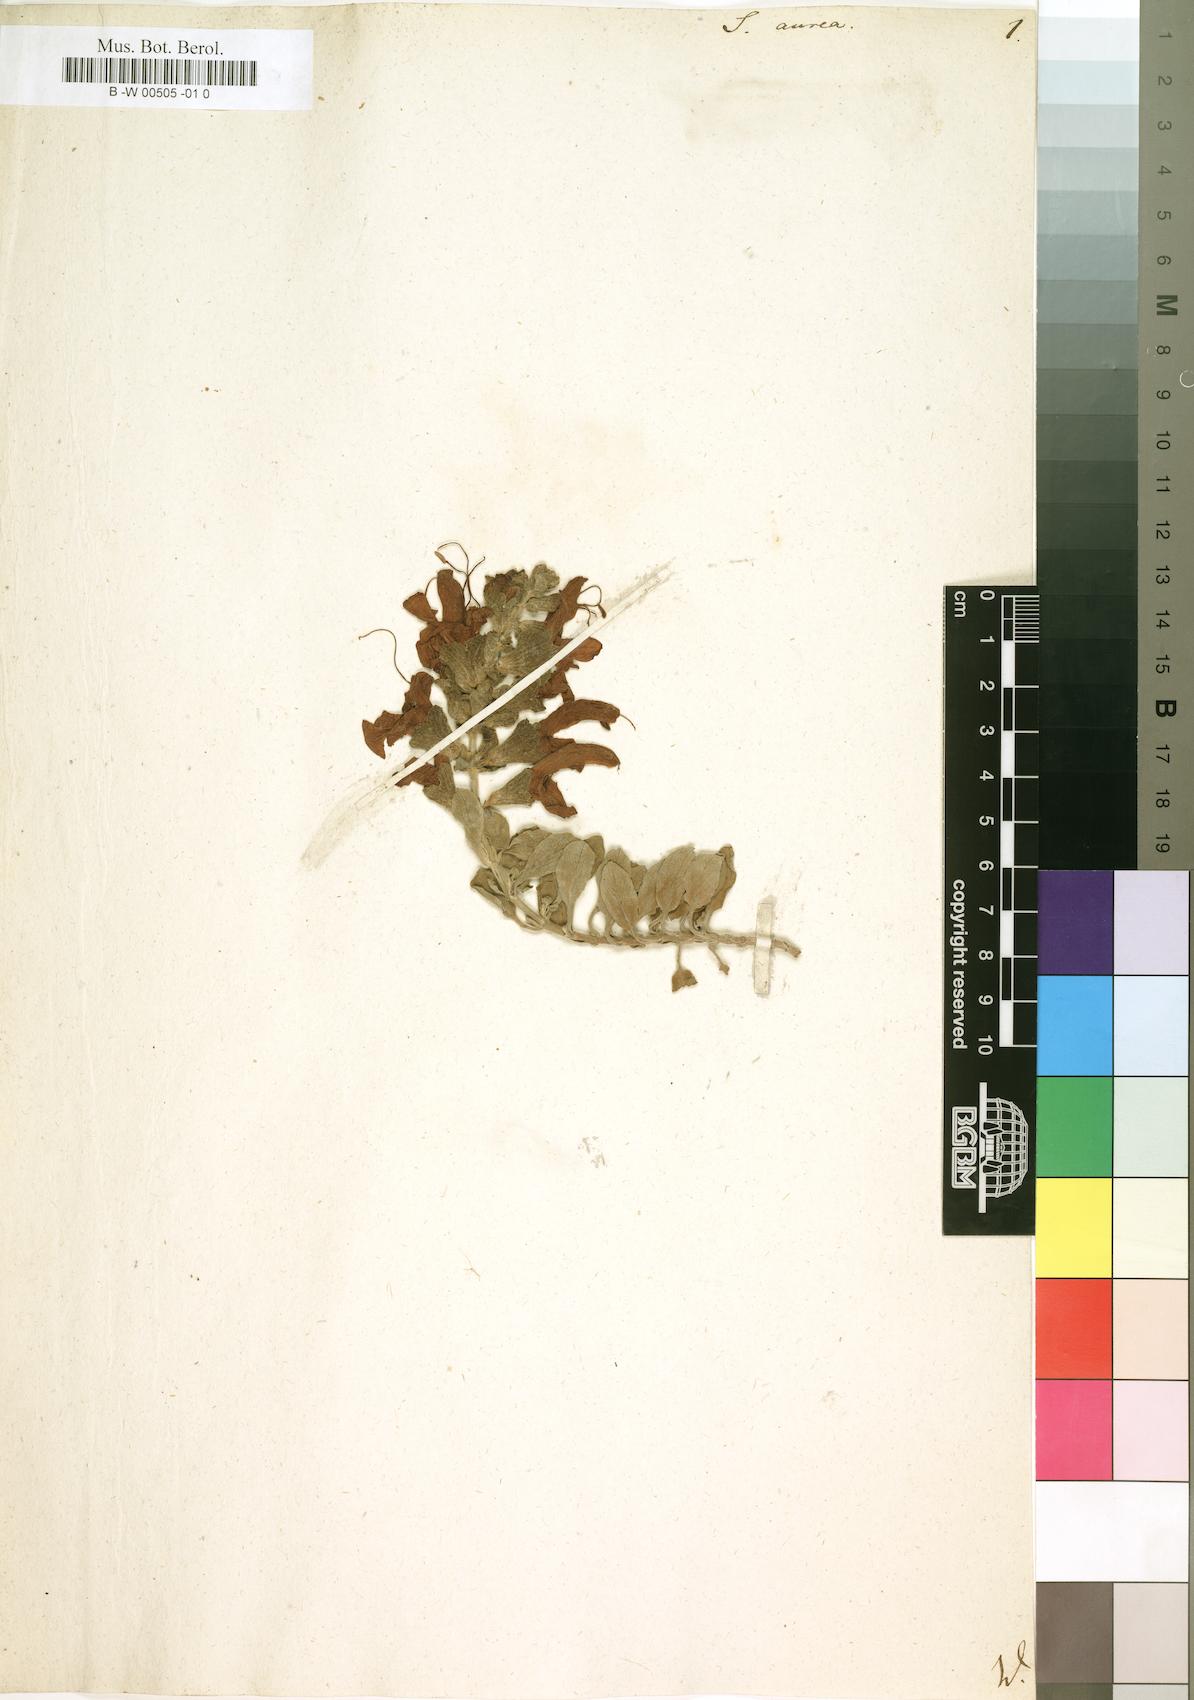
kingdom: Plantae
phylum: Tracheophyta
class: Magnoliopsida
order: Lamiales
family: Lamiaceae
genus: Salvia
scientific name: Salvia aurea
